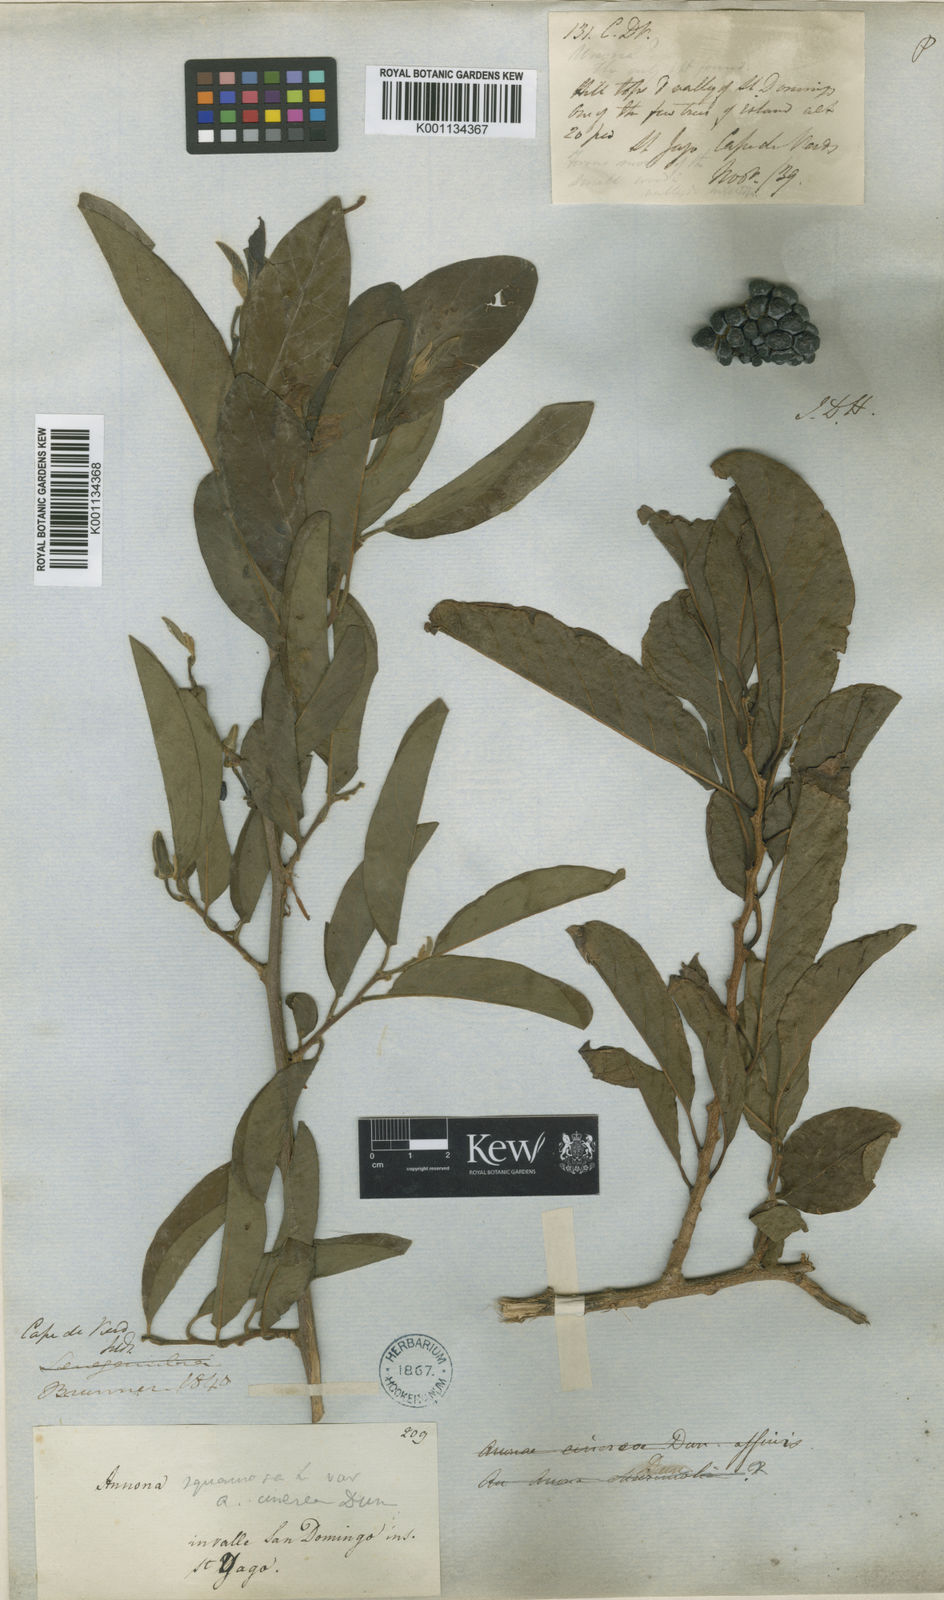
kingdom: Plantae
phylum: Tracheophyta
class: Magnoliopsida
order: Magnoliales
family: Annonaceae
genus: Annona
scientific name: Annona squamosa
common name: Custard-apple
